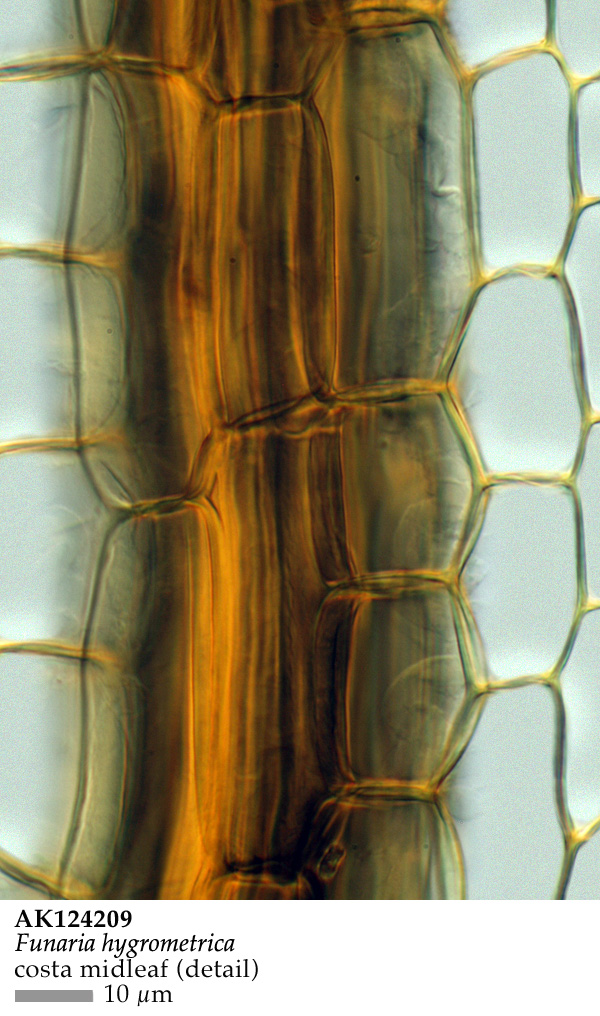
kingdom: Plantae
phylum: Bryophyta
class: Bryopsida
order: Funariales
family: Funariaceae
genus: Entosthodon
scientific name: Entosthodon apophysatus
